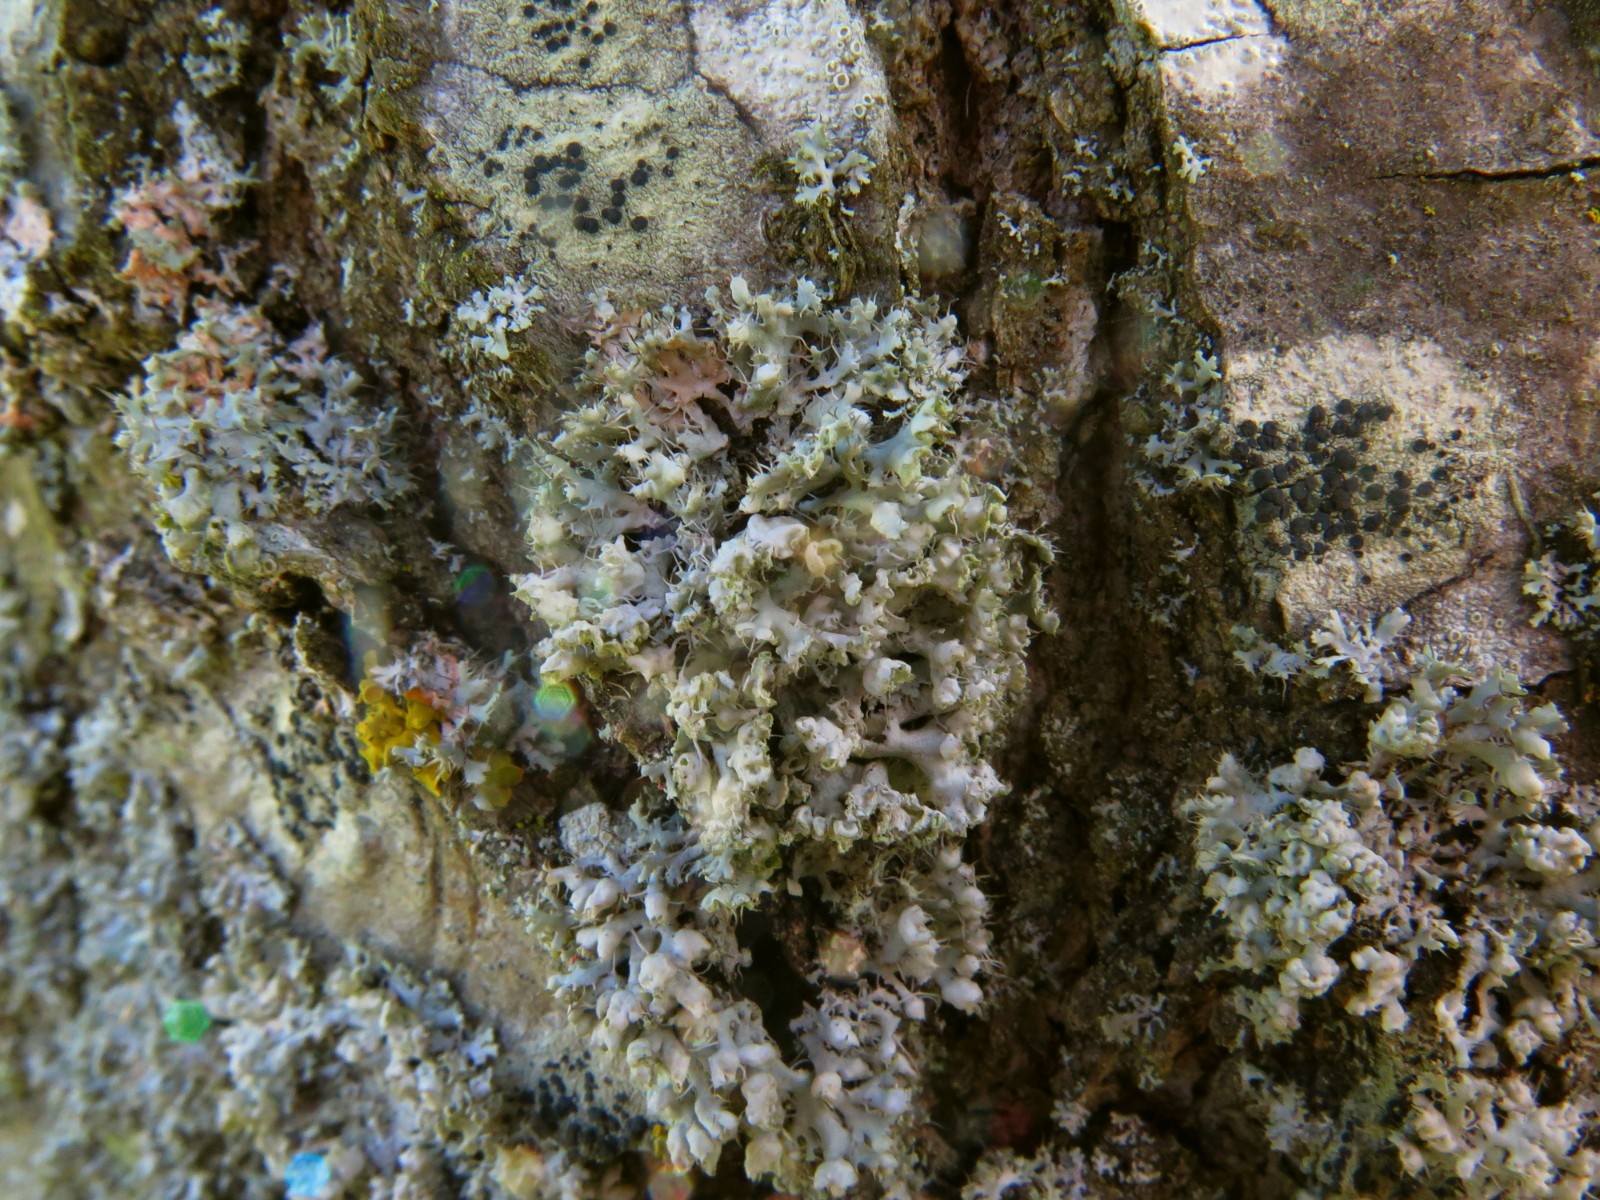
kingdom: Fungi
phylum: Ascomycota
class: Lecanoromycetes
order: Caliciales
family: Physciaceae
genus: Physcia
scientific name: Physcia adscendens
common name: hætte-rosetlav
